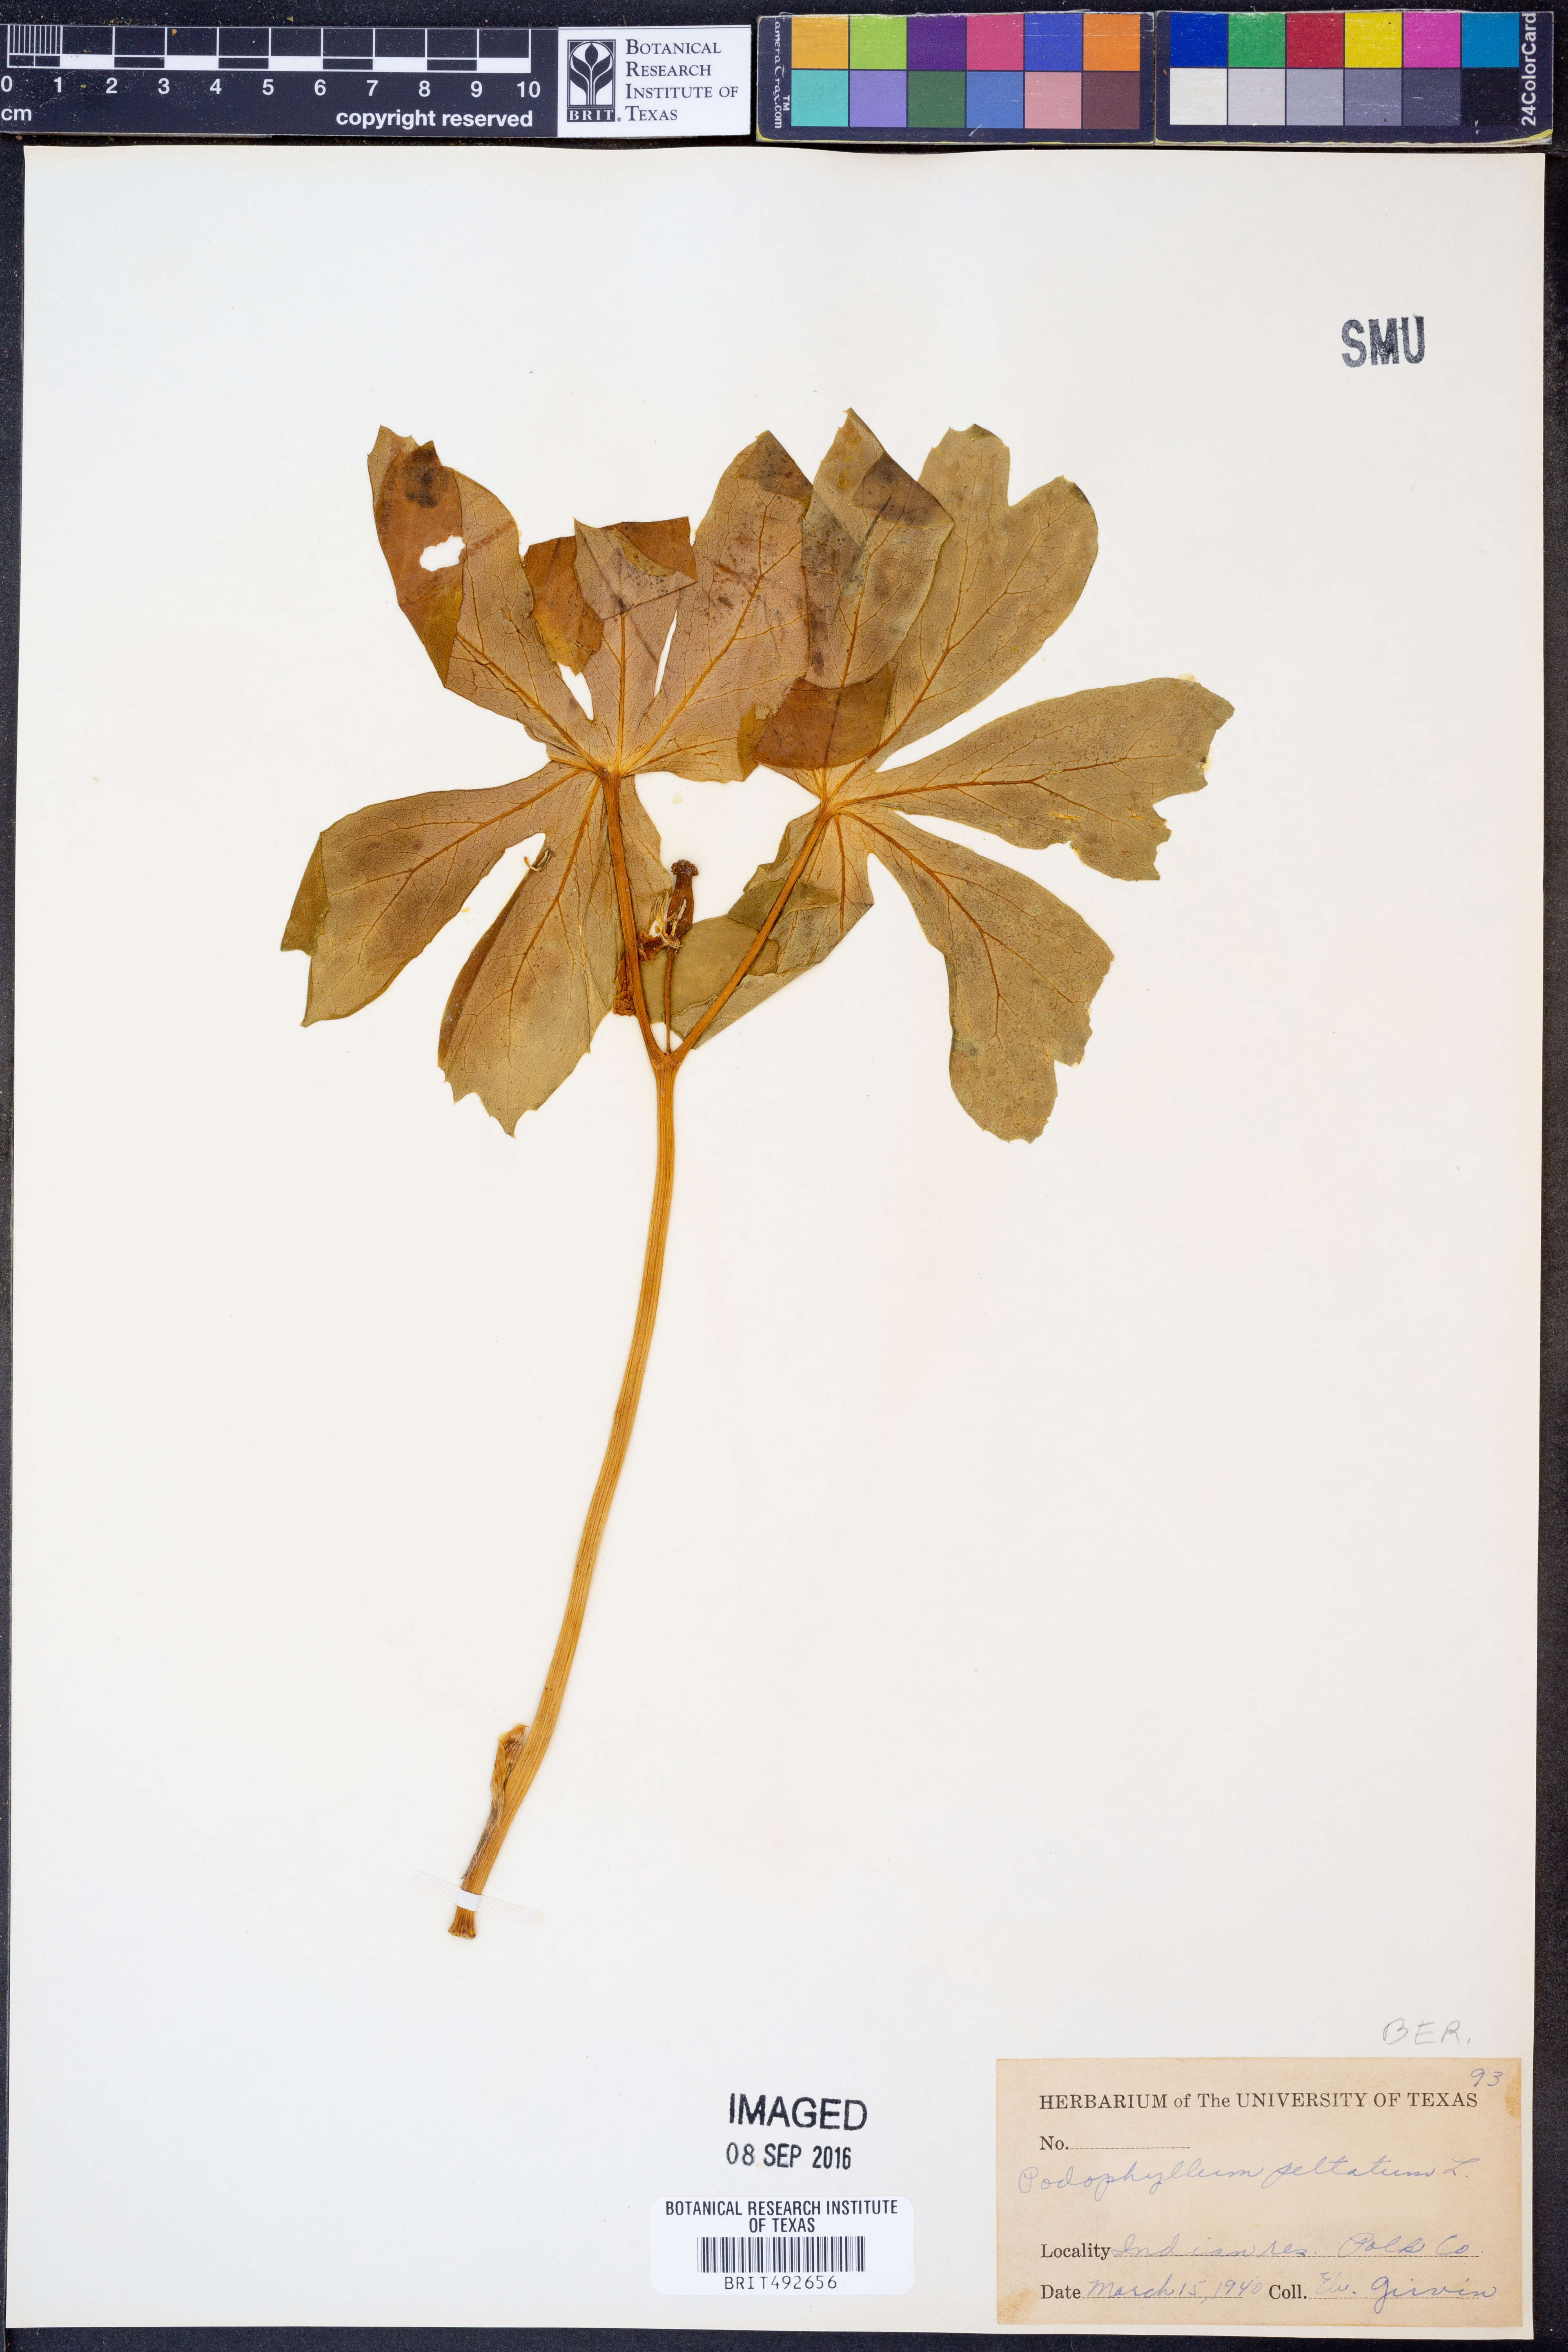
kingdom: Plantae
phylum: Tracheophyta
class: Magnoliopsida
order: Ranunculales
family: Berberidaceae
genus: Podophyllum
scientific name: Podophyllum peltatum
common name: Wild mandrake
